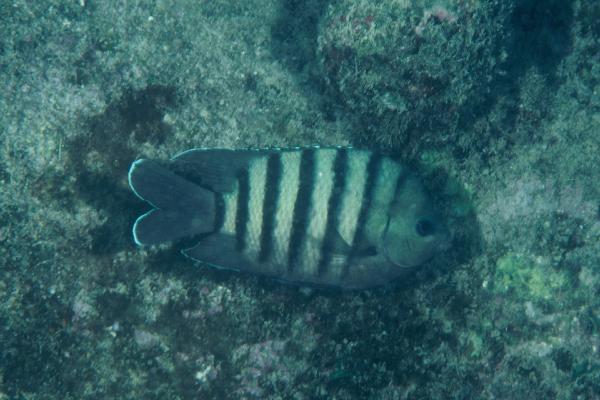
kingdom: Animalia
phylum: Chordata
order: Perciformes
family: Pomacentridae
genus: Abudefduf
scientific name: Abudefduf bengalensis
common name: Bengal sergeant
